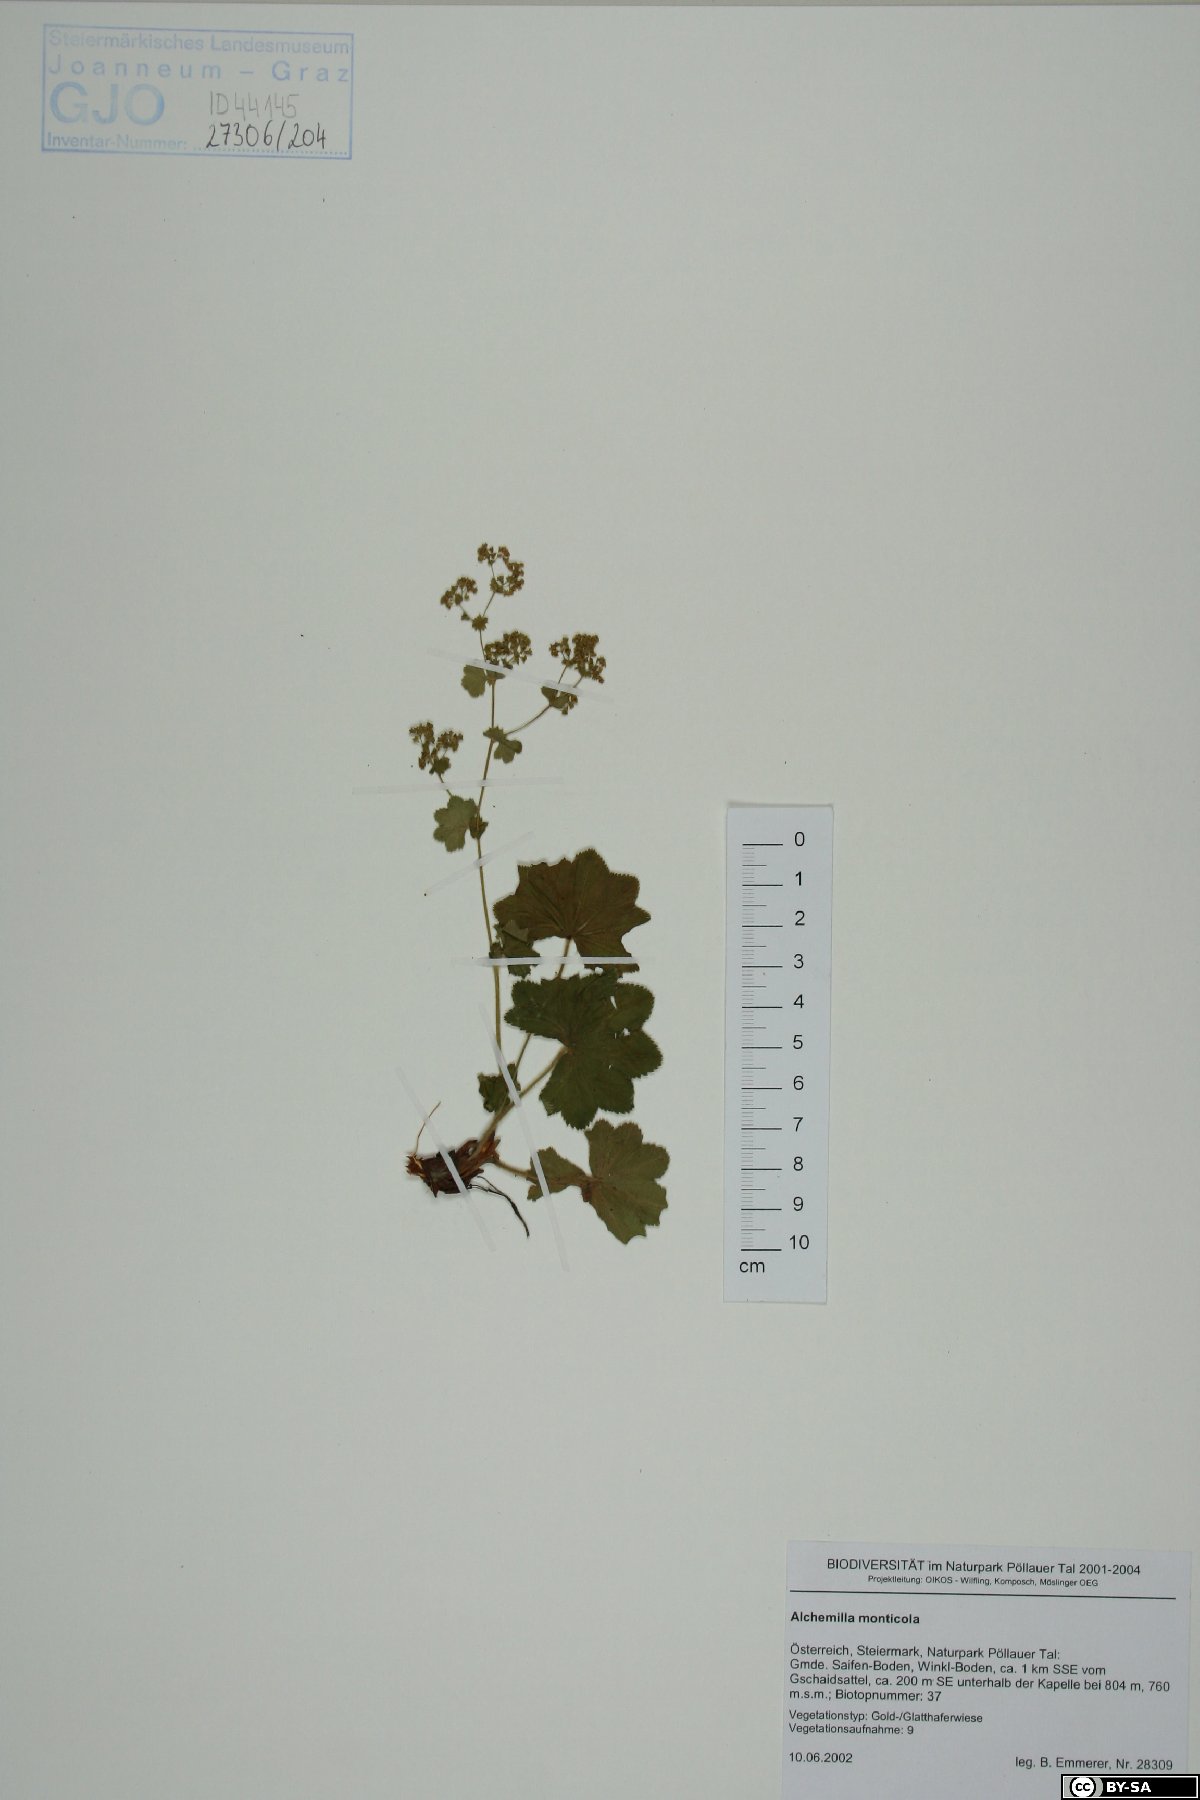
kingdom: Plantae
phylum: Tracheophyta
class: Magnoliopsida
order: Rosales
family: Rosaceae
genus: Alchemilla
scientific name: Alchemilla monticola
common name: Hairy lady's mantle
